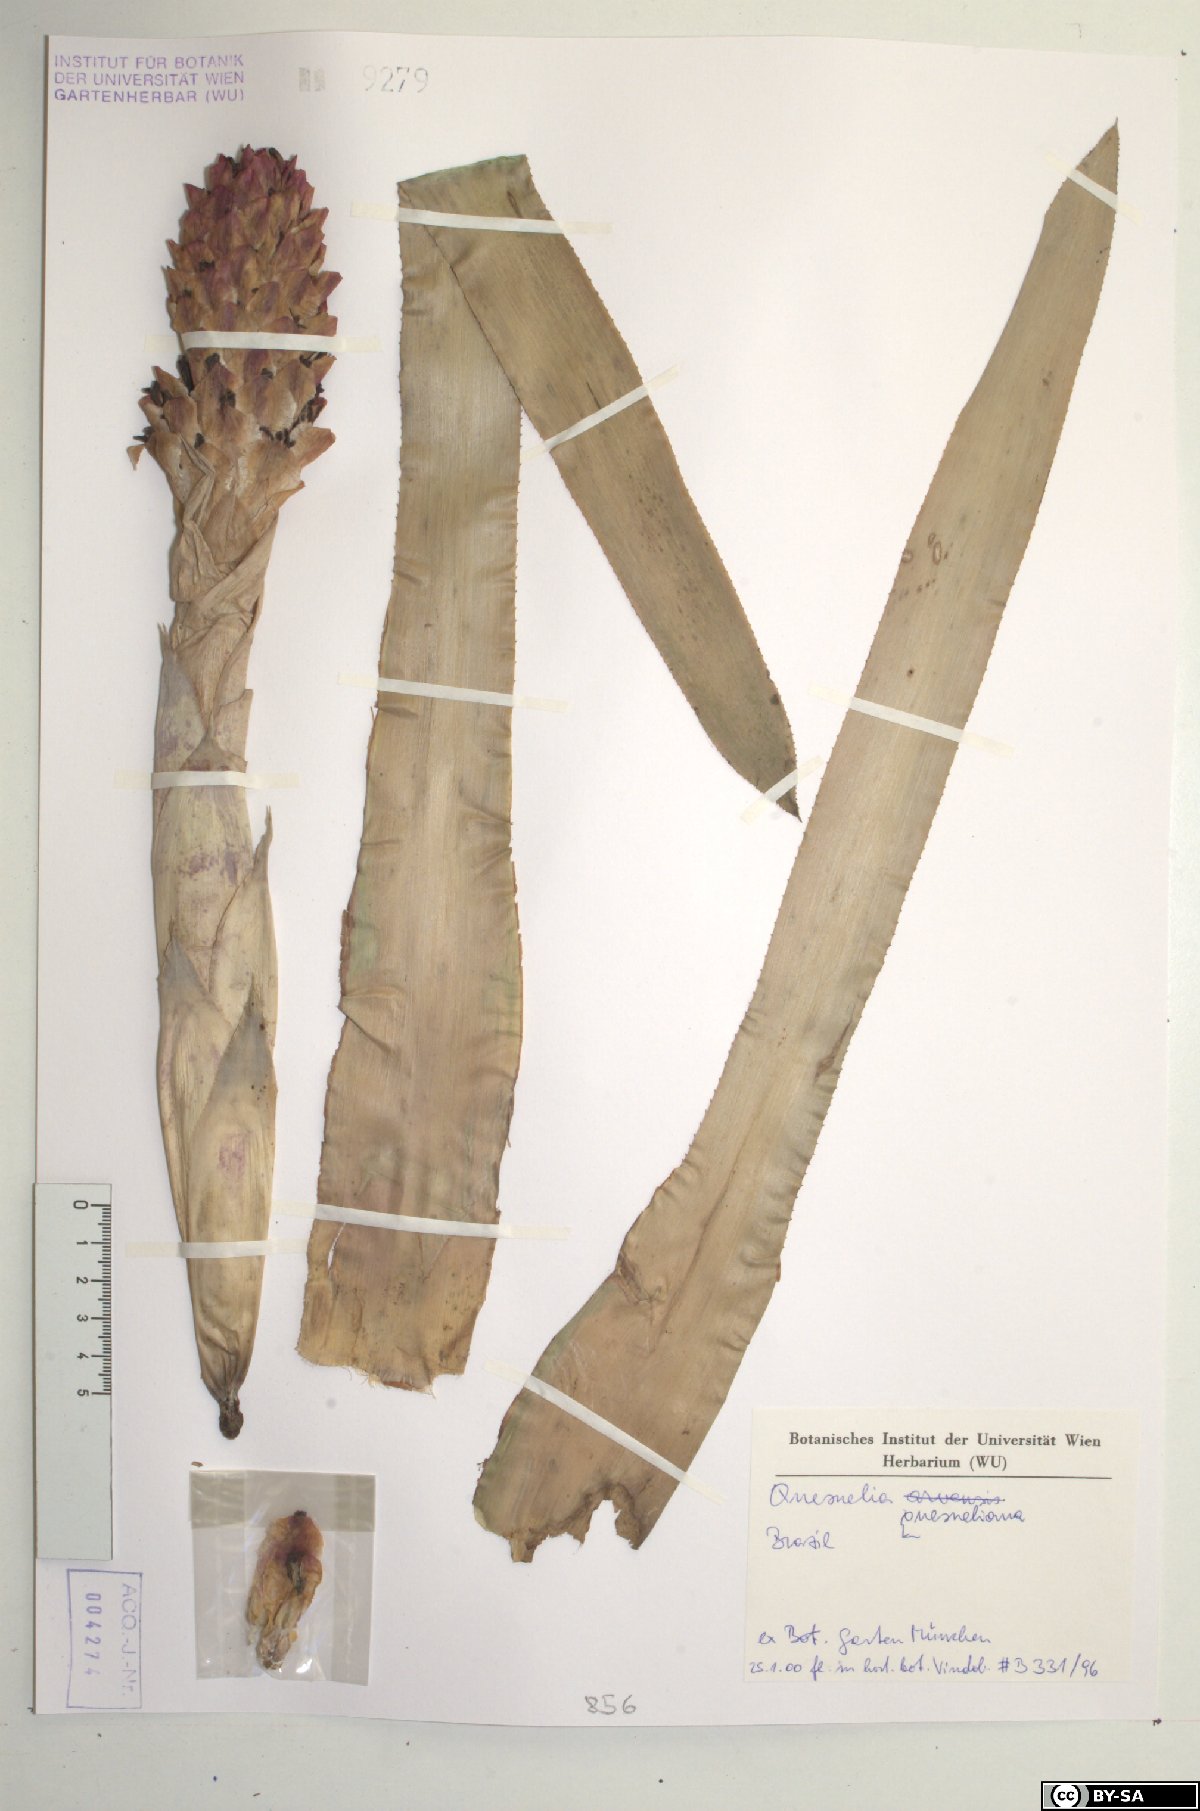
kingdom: Plantae
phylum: Tracheophyta
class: Liliopsida
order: Poales
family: Bromeliaceae
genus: Quesnelia
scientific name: Quesnelia quesneliana
